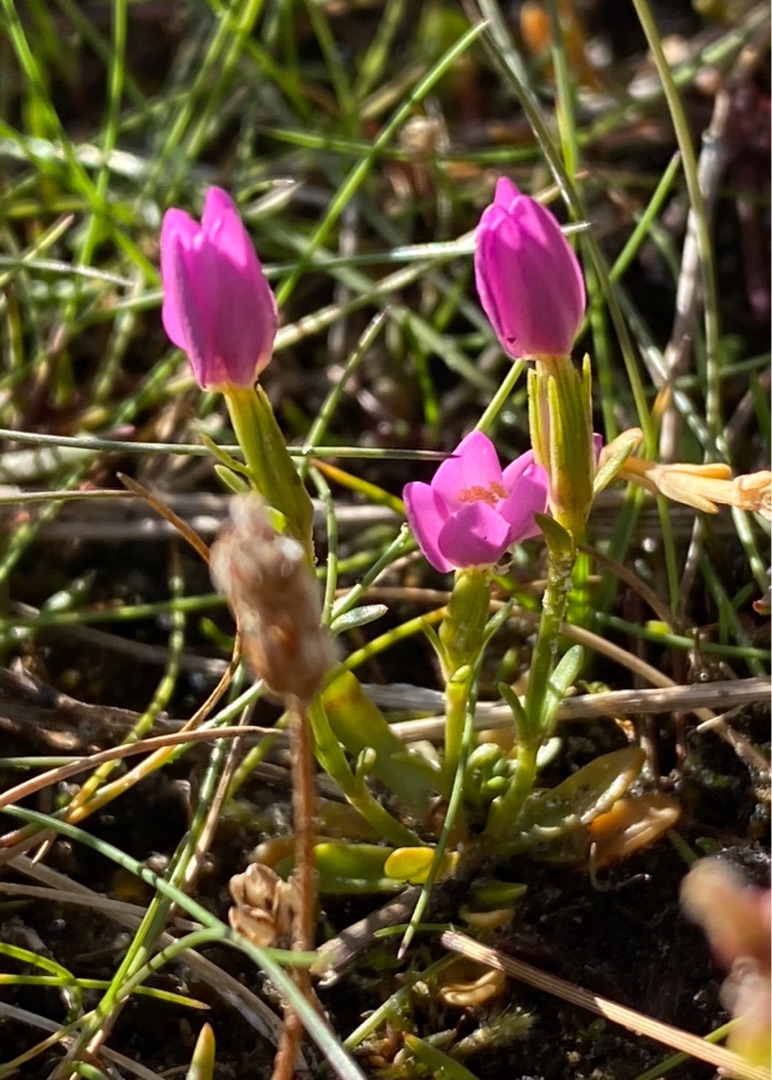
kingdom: Plantae
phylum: Tracheophyta
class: Magnoliopsida
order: Gentianales
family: Gentianaceae
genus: Centaurium
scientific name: Centaurium littorale
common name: Strand-tusindgylden
